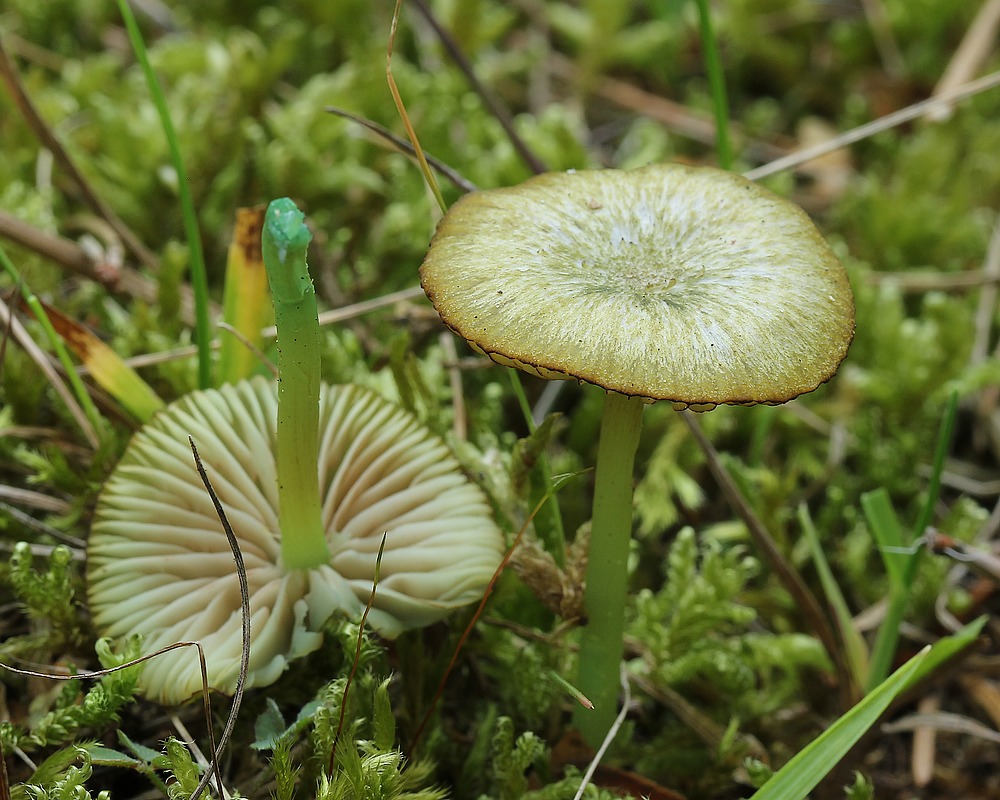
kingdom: Fungi
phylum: Basidiomycota
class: Agaricomycetes
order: Agaricales
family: Entolomataceae
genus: Entoloma
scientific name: Entoloma incanum
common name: grøngul rødblad
